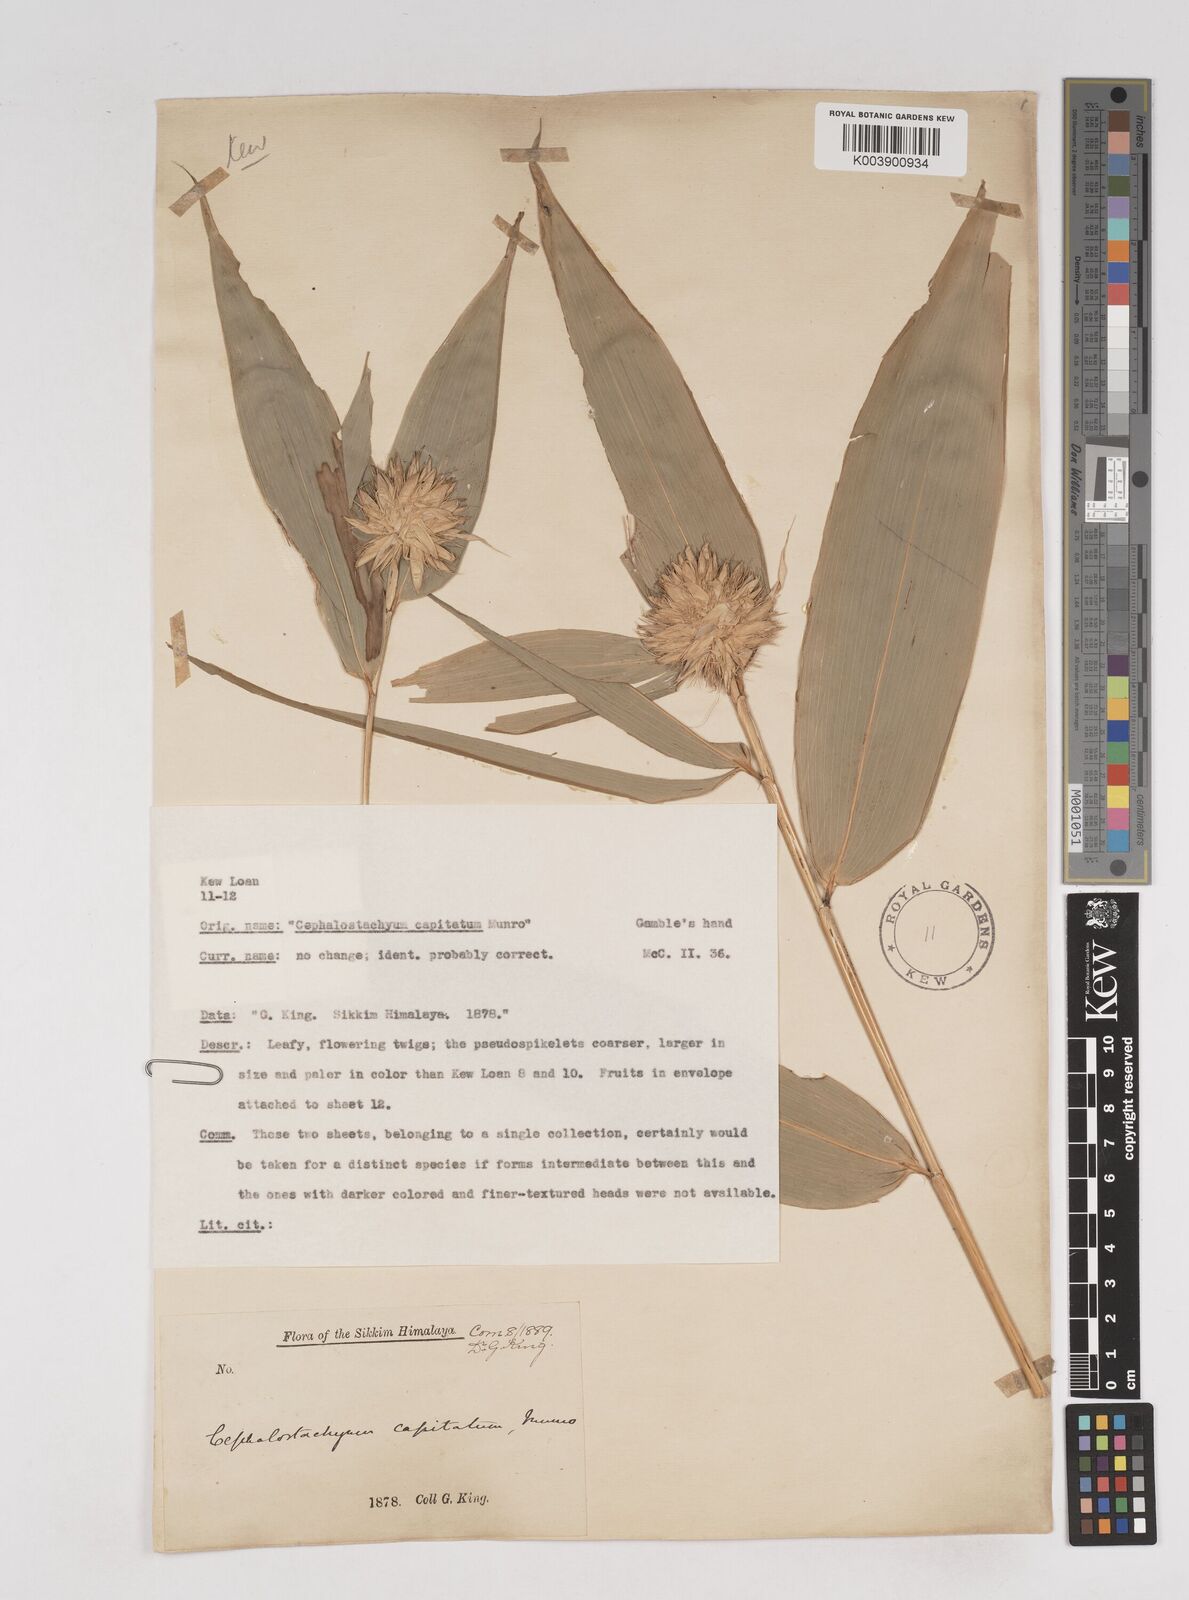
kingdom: Plantae
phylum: Tracheophyta
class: Liliopsida
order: Poales
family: Poaceae
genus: Cephalostachyum
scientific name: Cephalostachyum capitatum
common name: Hollow bamboo
